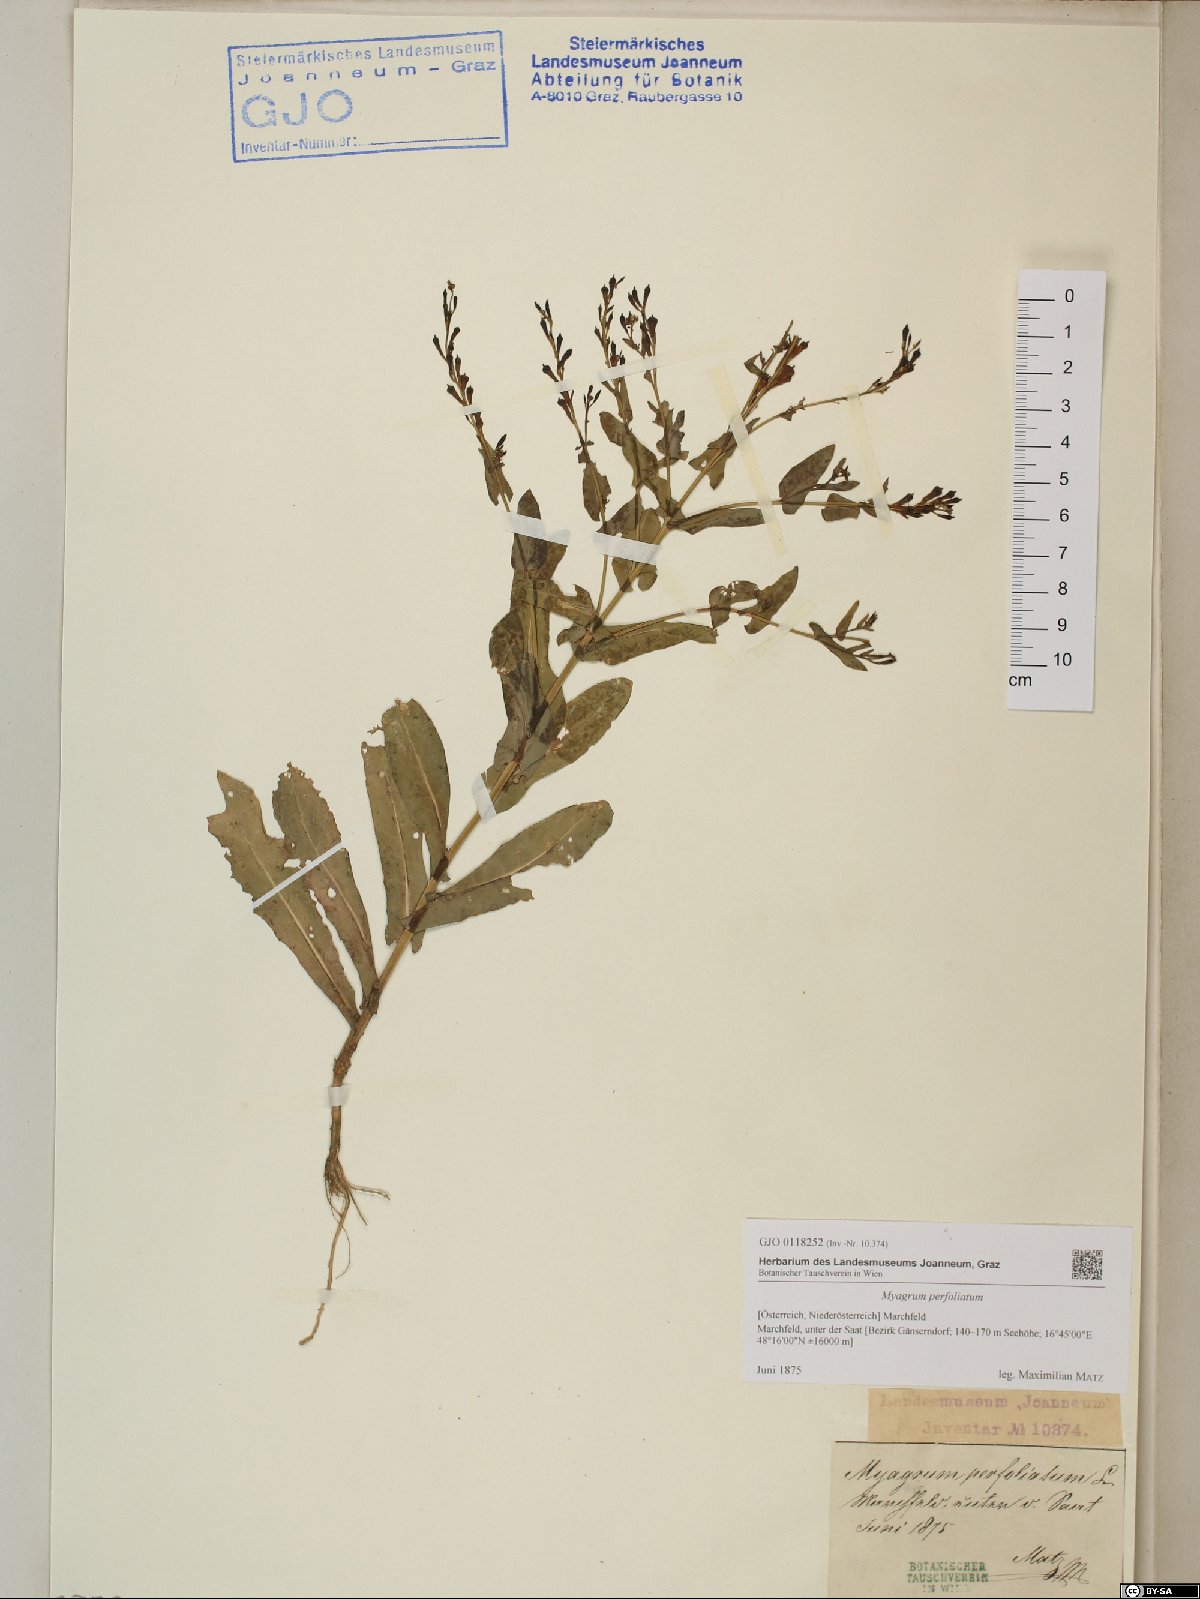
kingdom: Plantae
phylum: Tracheophyta
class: Magnoliopsida
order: Brassicales
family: Brassicaceae
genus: Myagrum
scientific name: Myagrum perfoliatum
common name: Mitre cress
